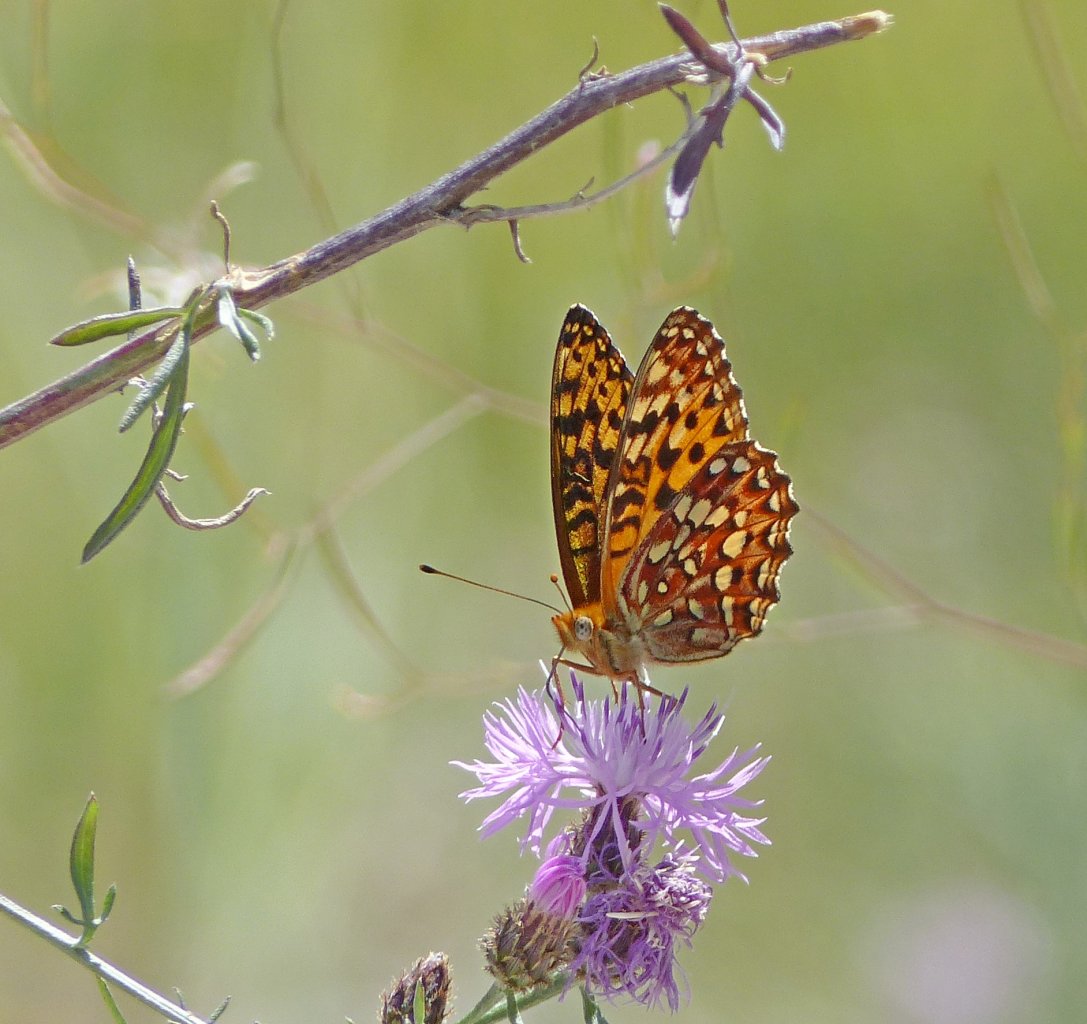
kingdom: Animalia
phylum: Arthropoda
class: Insecta
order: Lepidoptera
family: Nymphalidae
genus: Speyeria
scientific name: Speyeria hydaspe
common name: Hydaspe Fritillary
